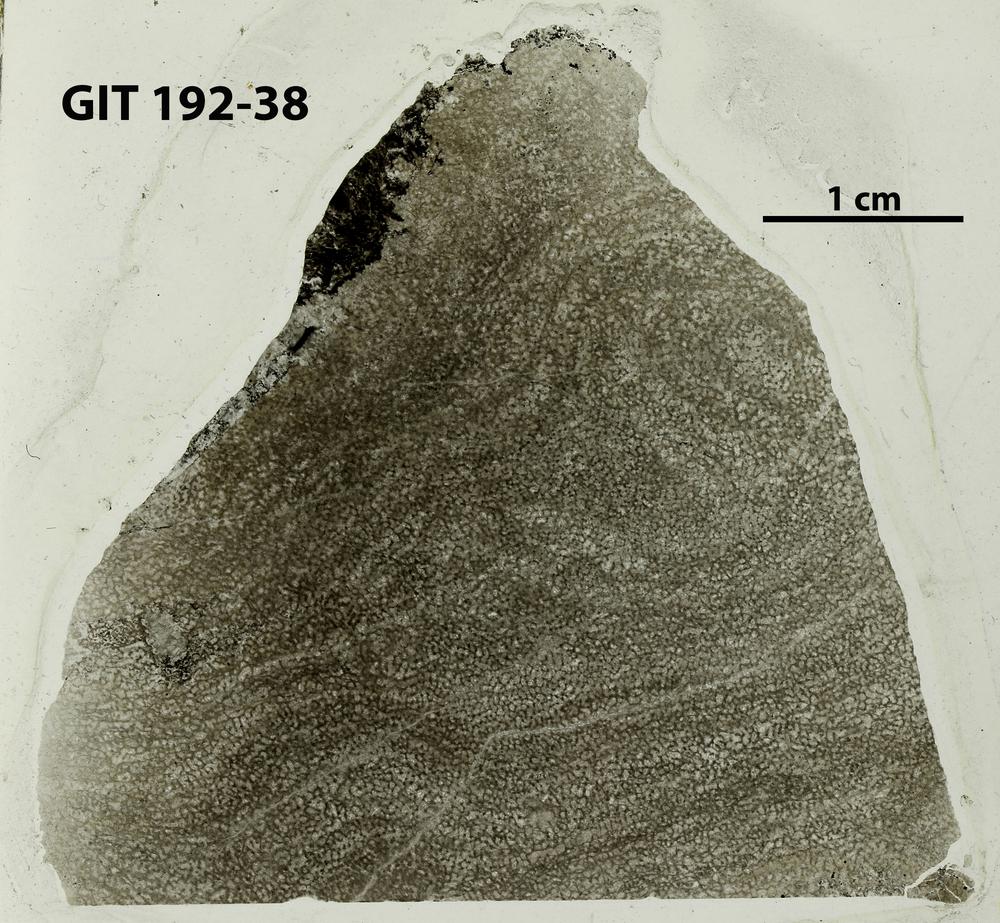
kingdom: Animalia
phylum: Porifera
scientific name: Porifera
